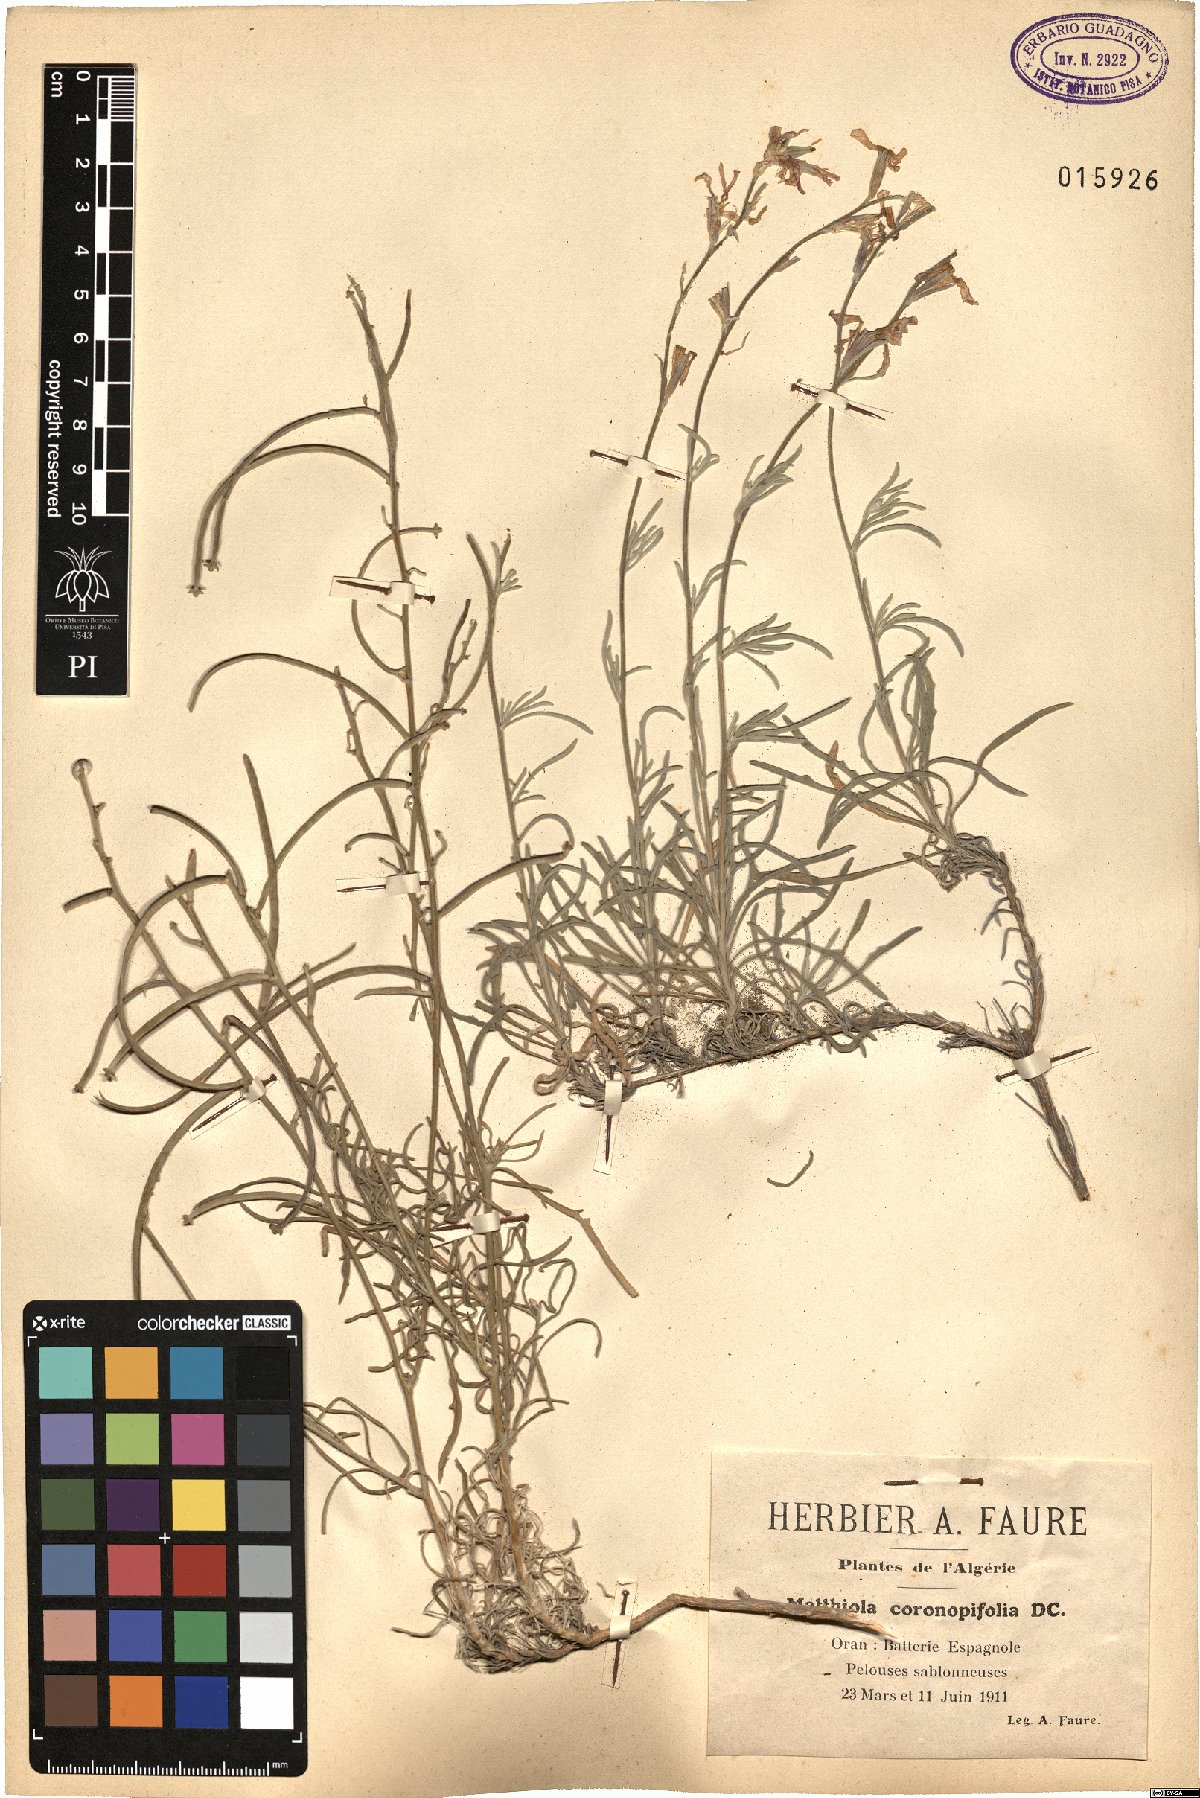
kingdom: Plantae
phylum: Tracheophyta
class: Magnoliopsida
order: Brassicales
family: Brassicaceae
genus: Matthiola
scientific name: Matthiola fruticulosa
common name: Sad stock
